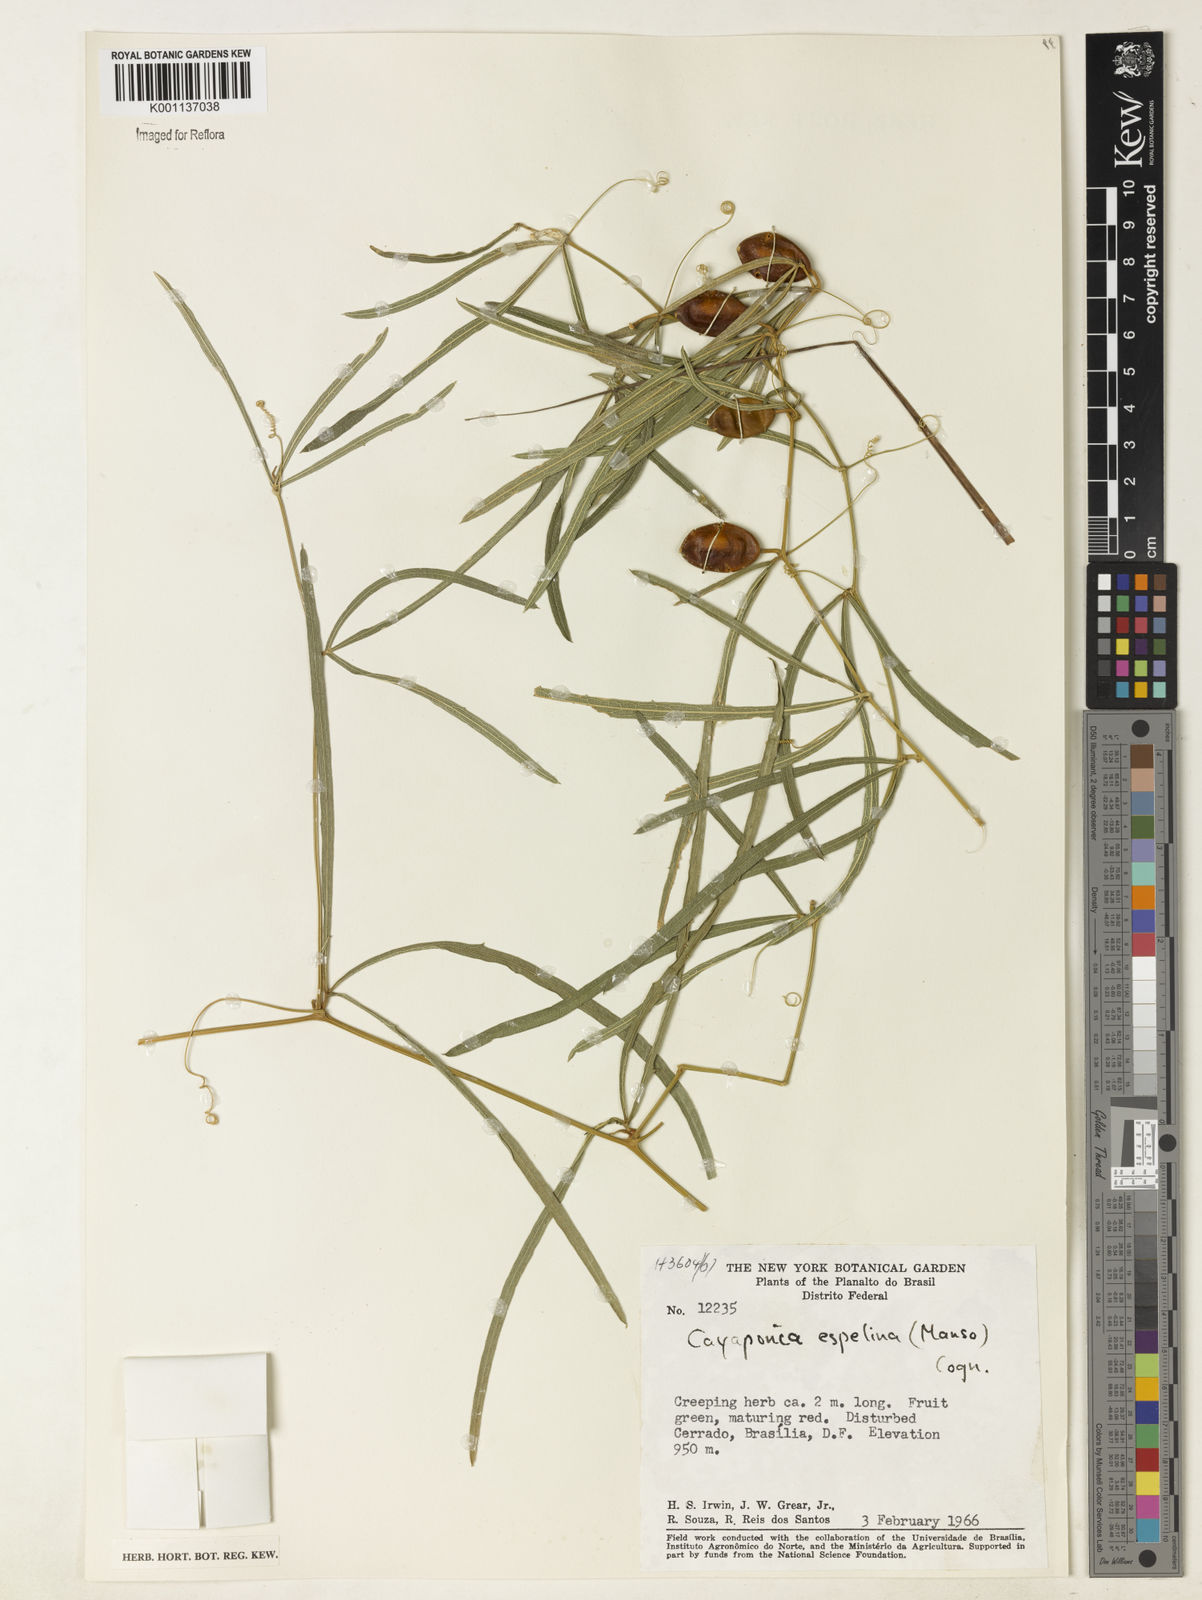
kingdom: Plantae
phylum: Tracheophyta
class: Magnoliopsida
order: Cucurbitales
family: Cucurbitaceae
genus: Cayaponia
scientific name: Cayaponia espelina
